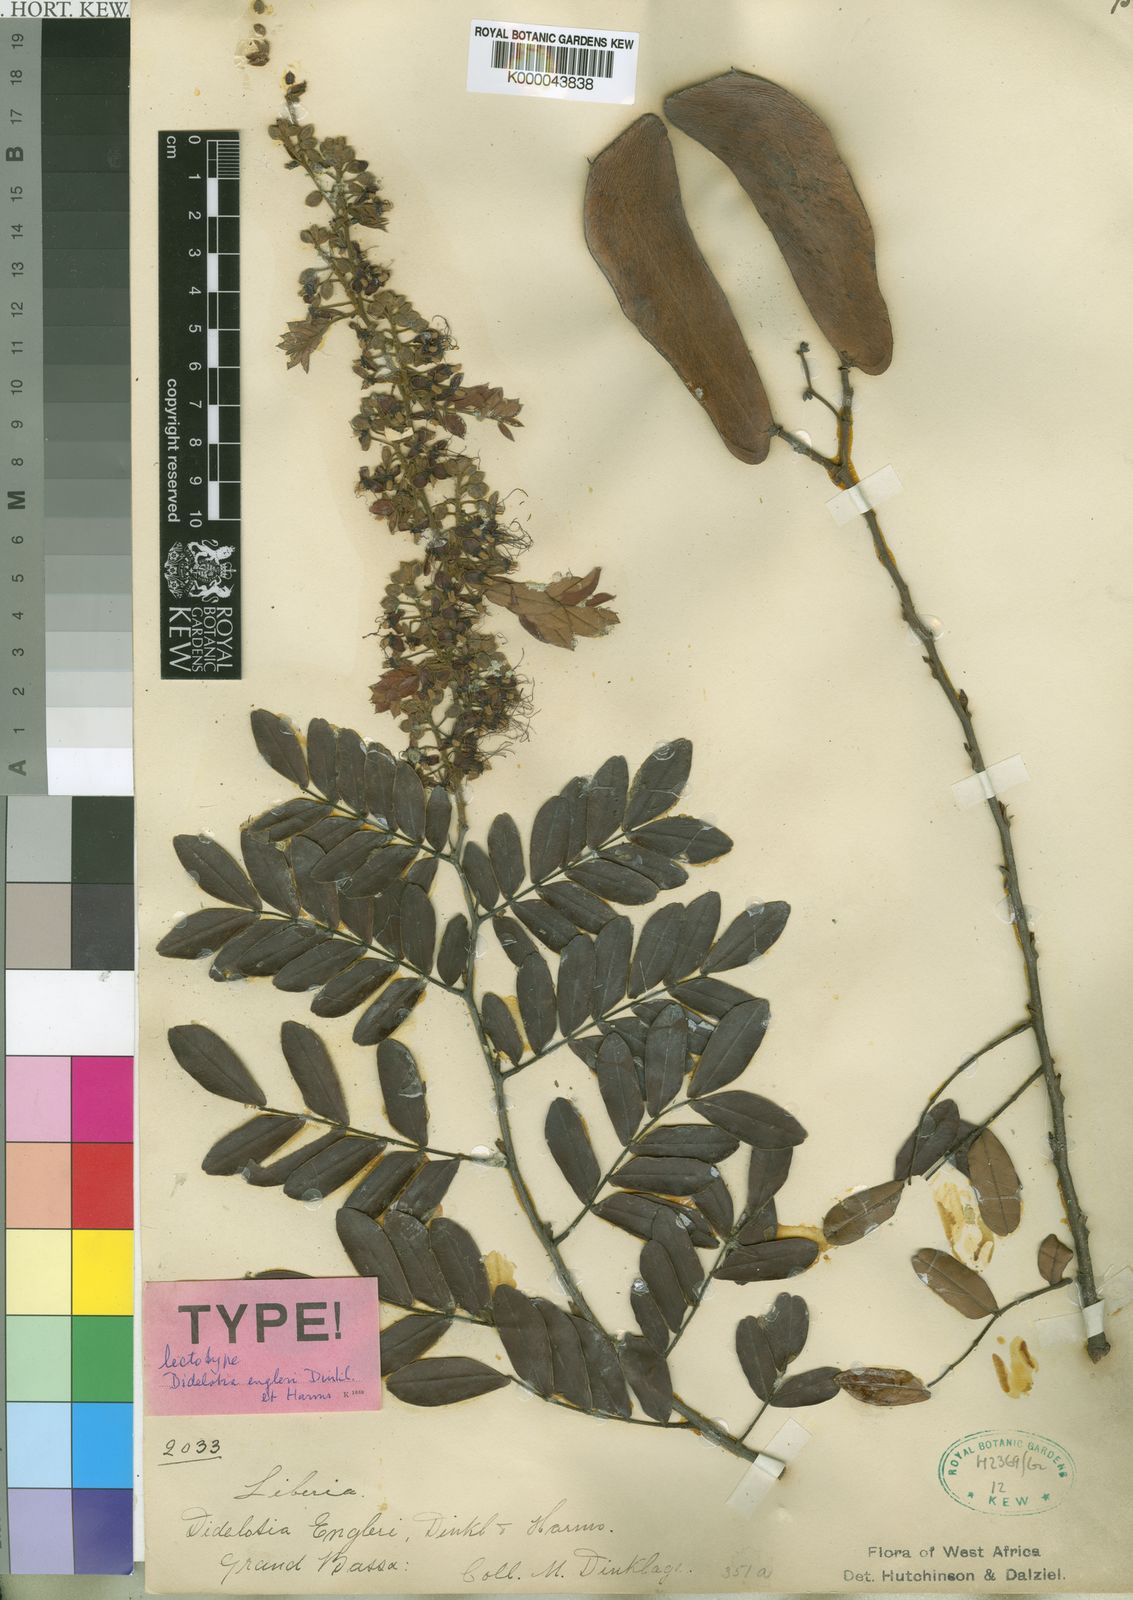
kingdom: Plantae
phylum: Tracheophyta
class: Magnoliopsida
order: Fabales
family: Fabaceae
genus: Didelotia
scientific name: Didelotia engleri
